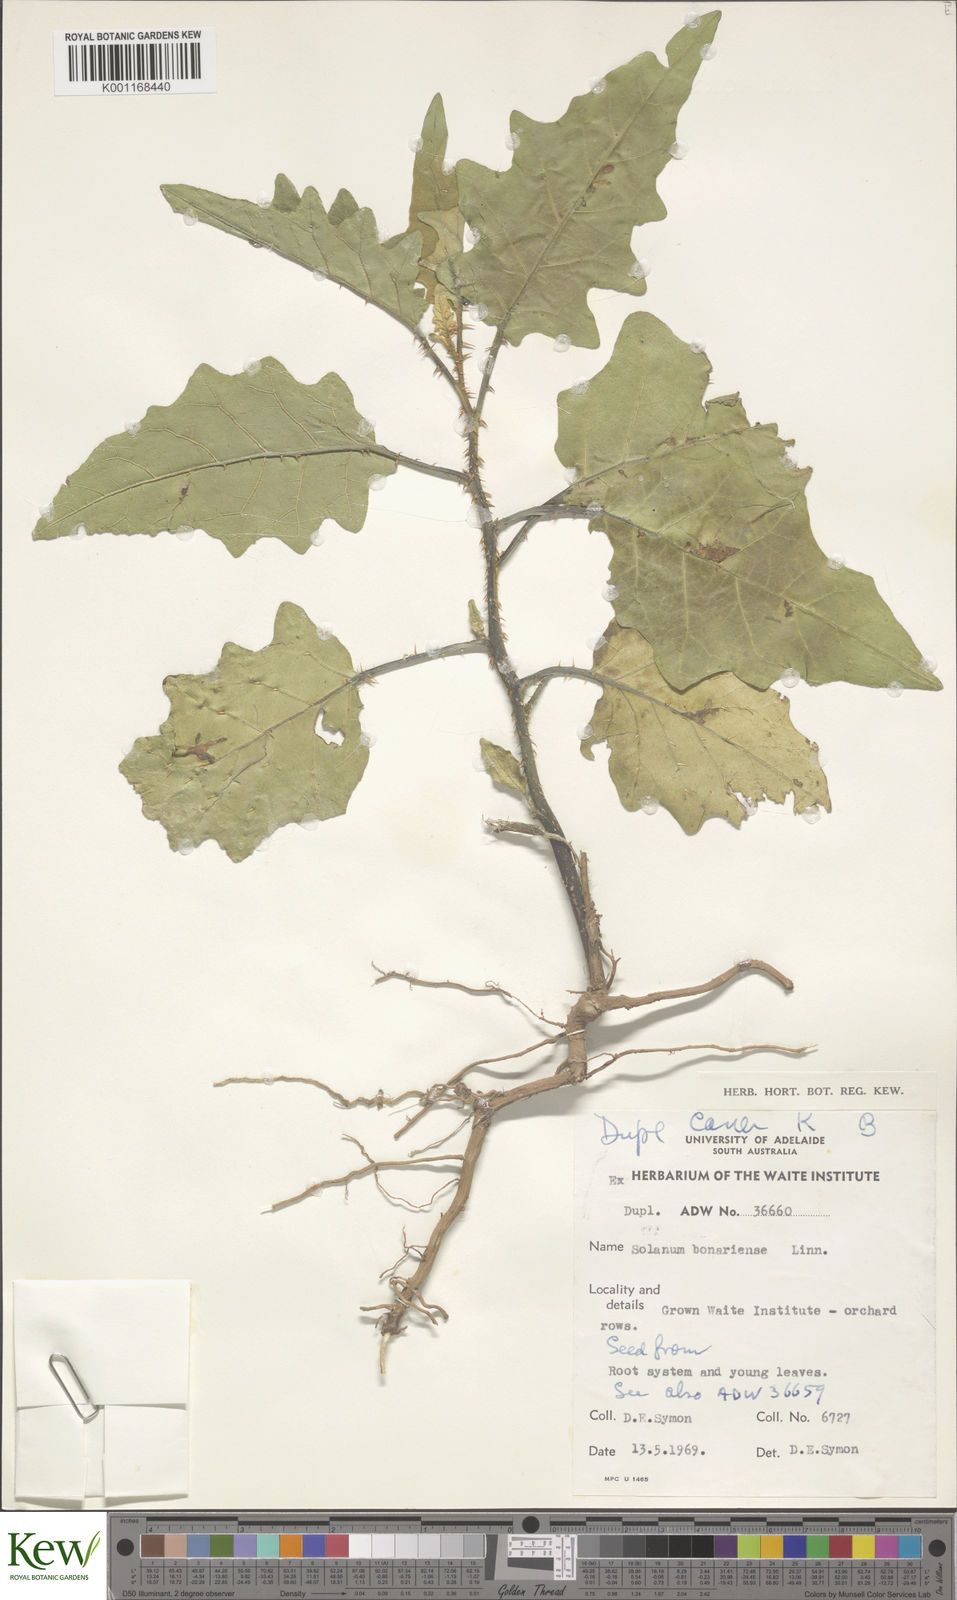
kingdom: Plantae
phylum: Tracheophyta
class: Magnoliopsida
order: Solanales
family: Solanaceae
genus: Solanum
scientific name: Solanum bonariense
